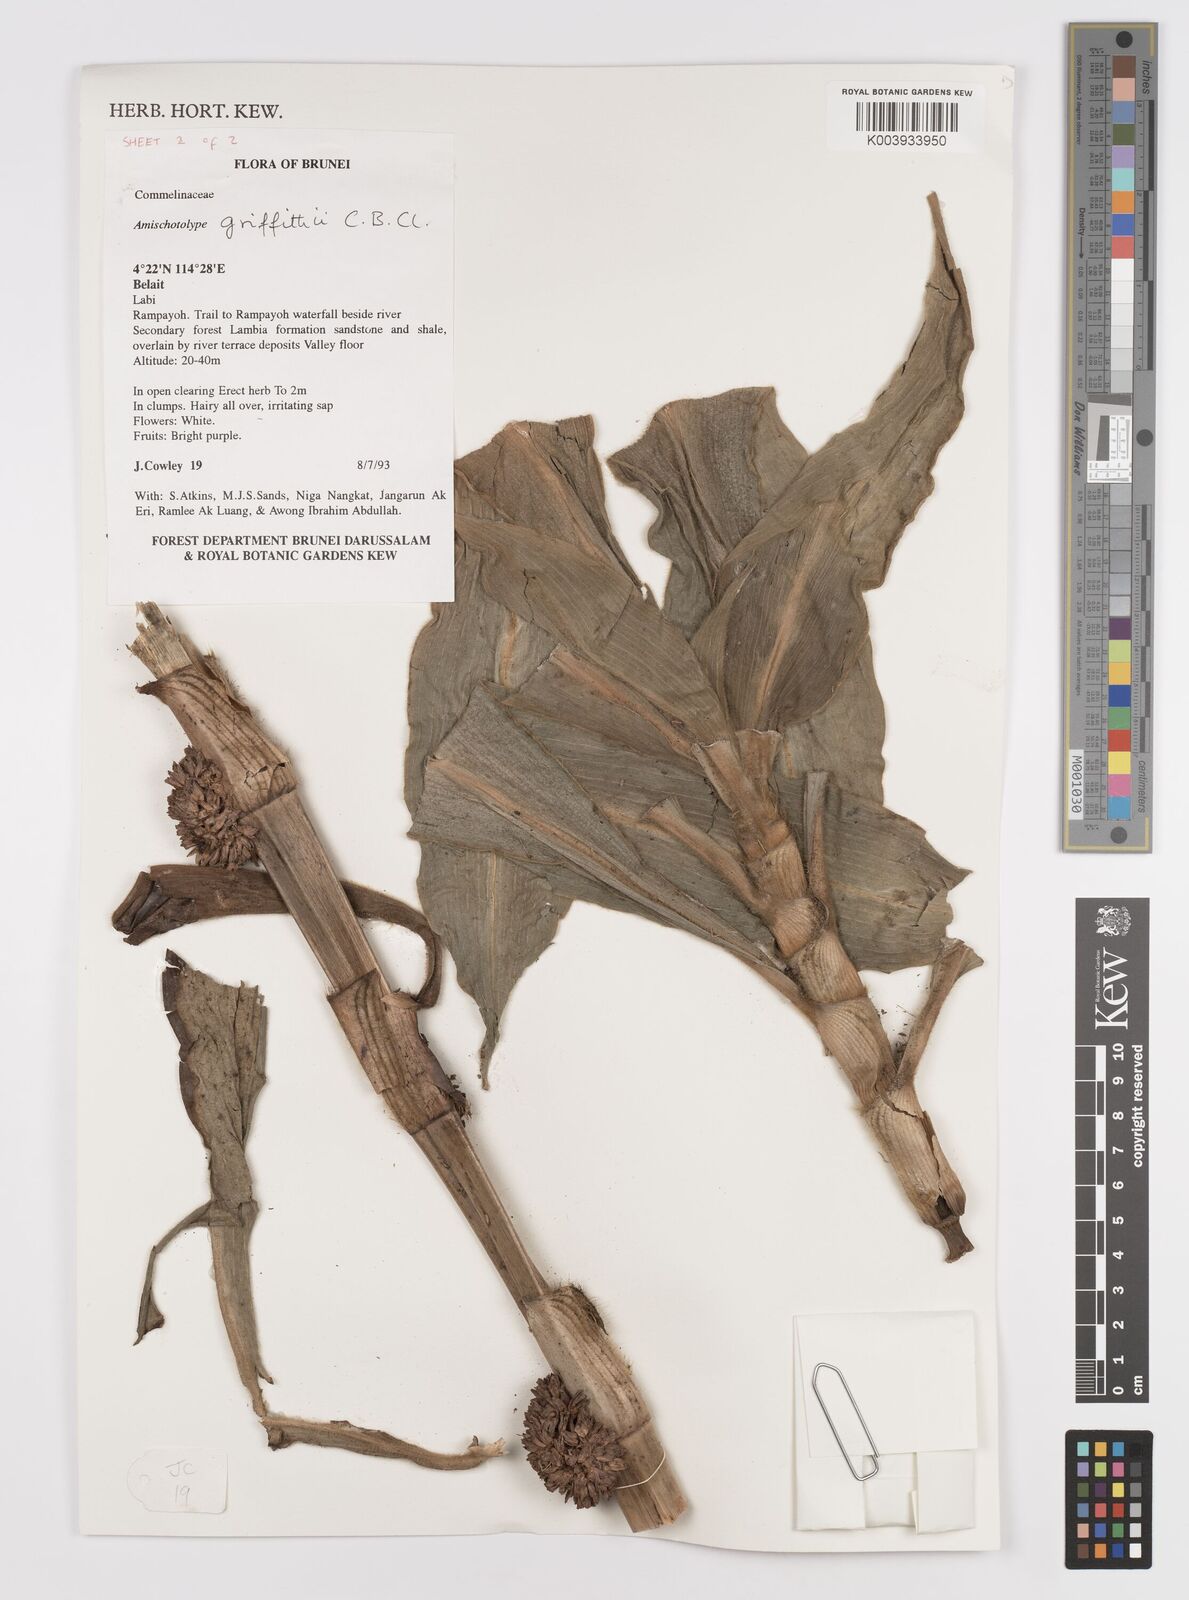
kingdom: Plantae
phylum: Tracheophyta
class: Liliopsida
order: Commelinales
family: Commelinaceae
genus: Amischotolype
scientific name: Amischotolype griffithii
